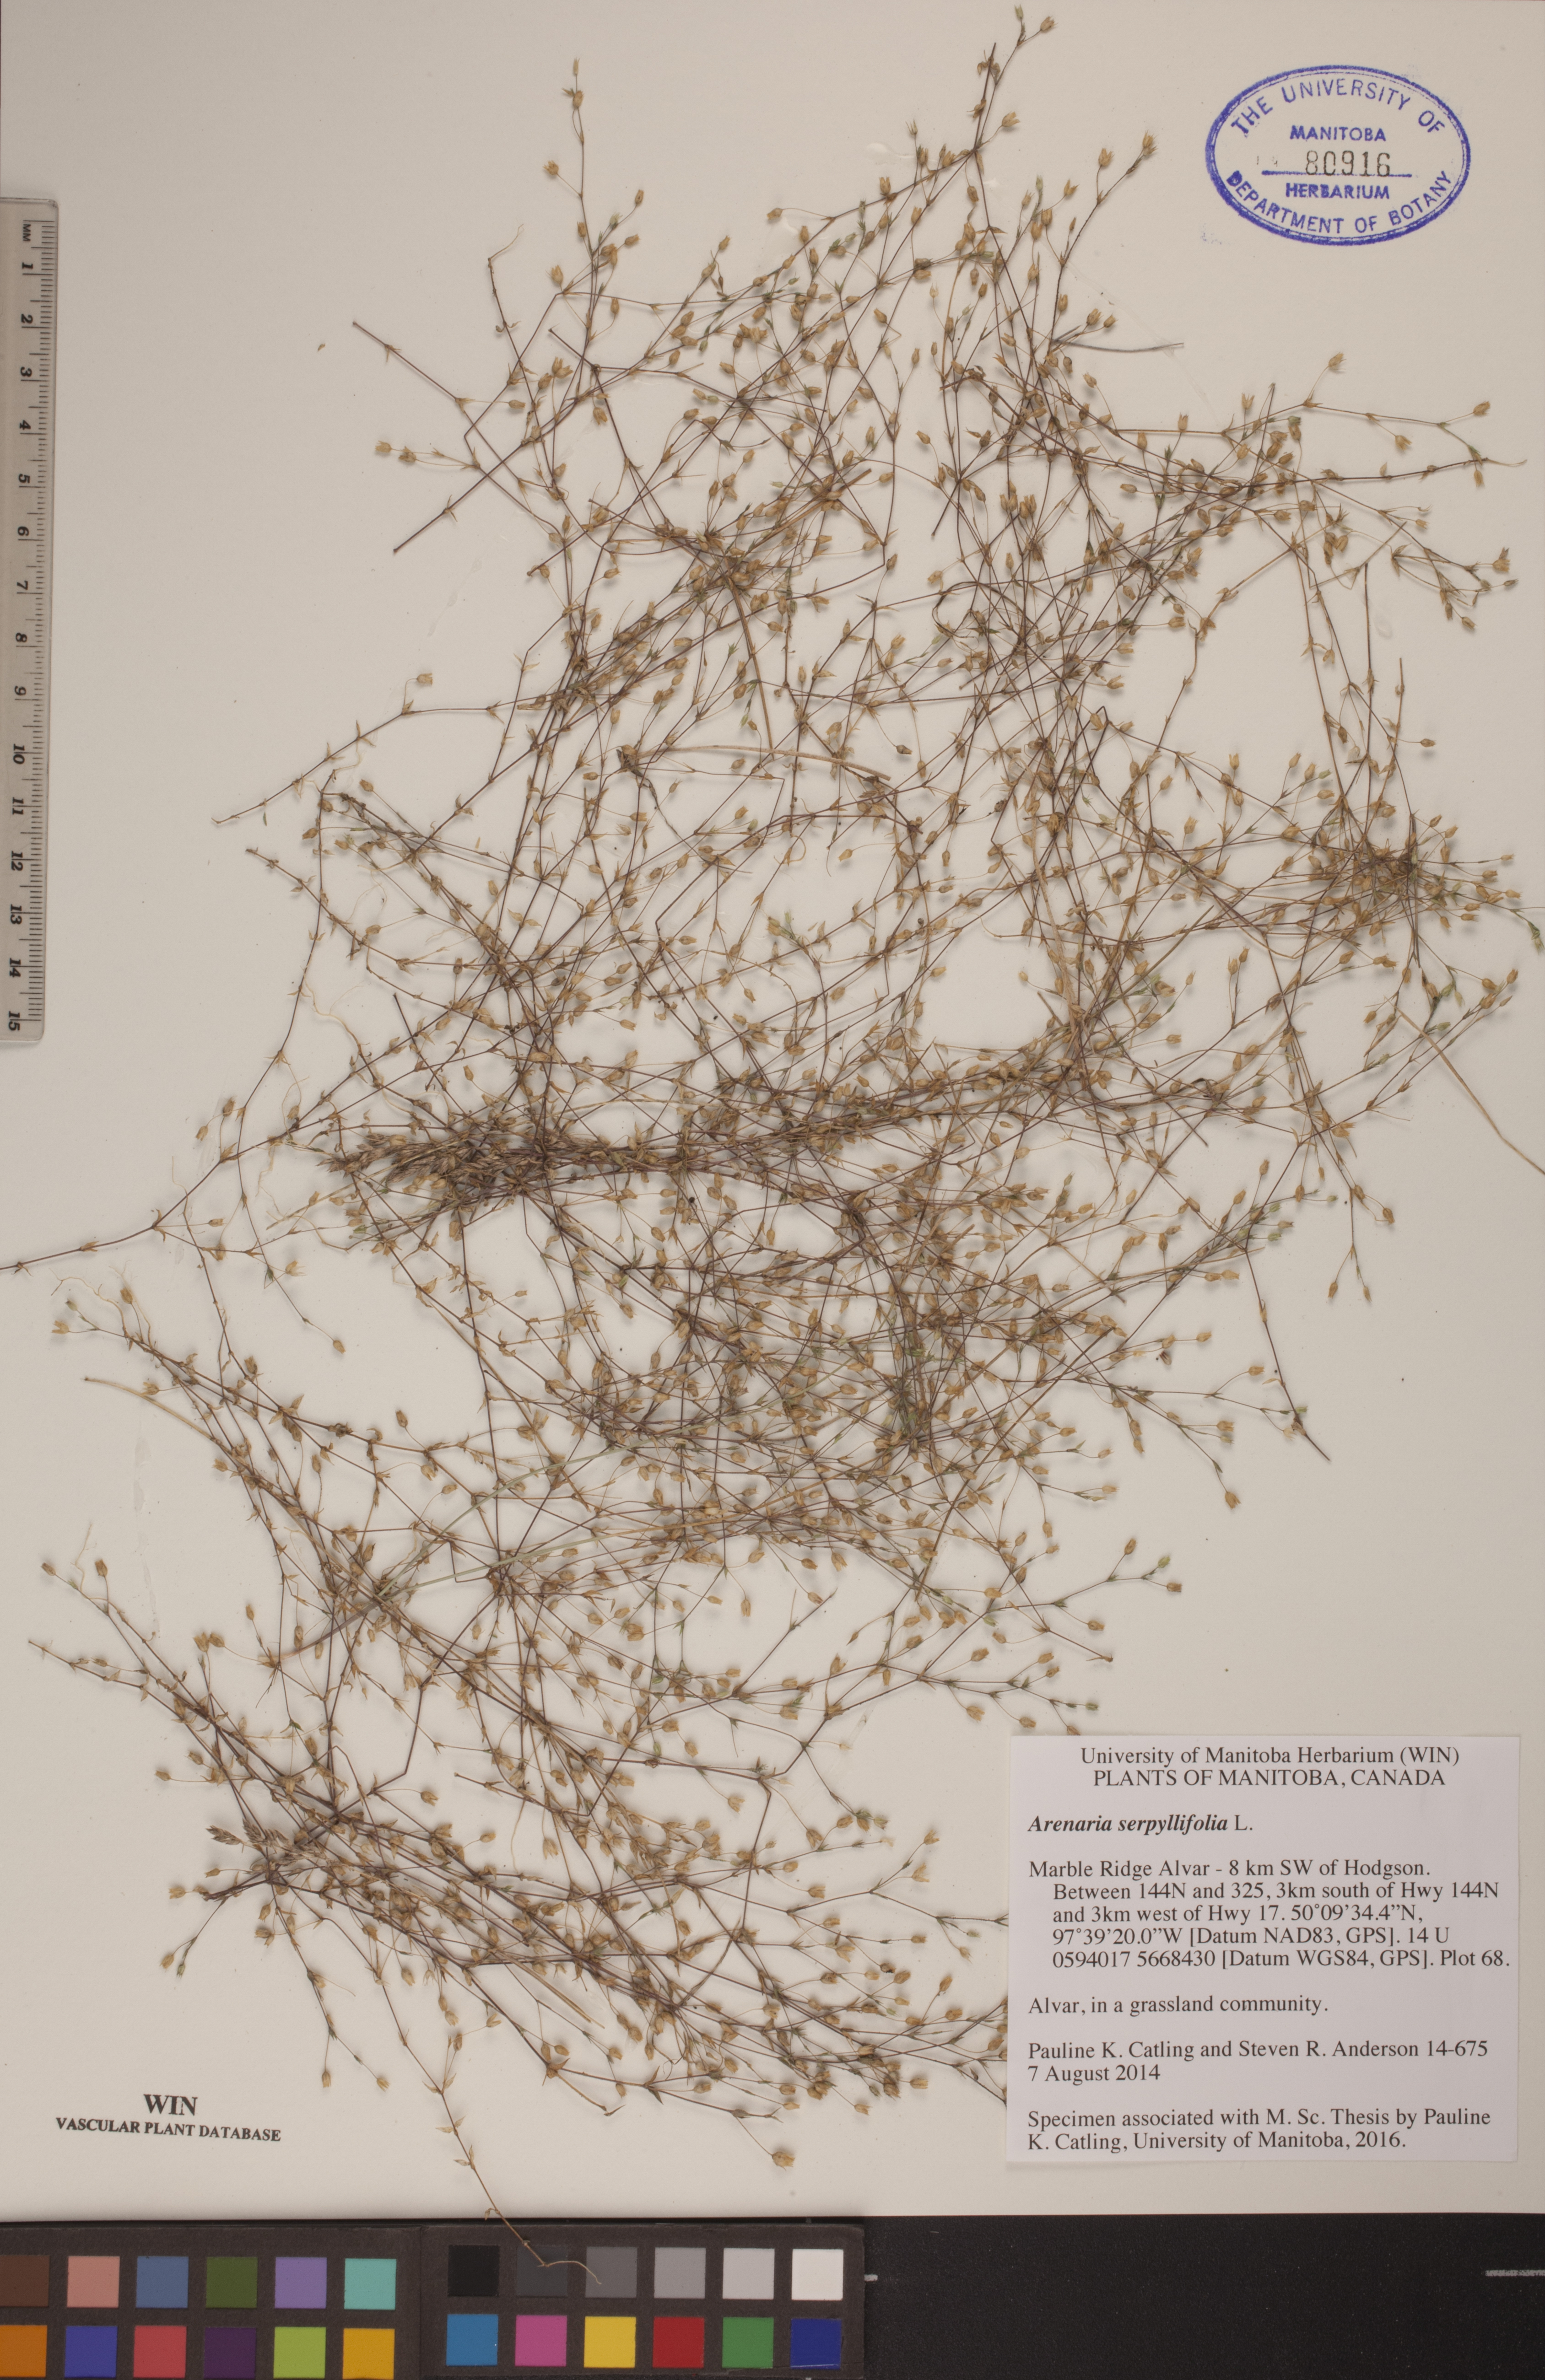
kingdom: Plantae
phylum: Tracheophyta
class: Magnoliopsida
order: Caryophyllales
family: Caryophyllaceae
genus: Arenaria
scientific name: Arenaria serpyllifolia
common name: Thyme-leaved sandwort
